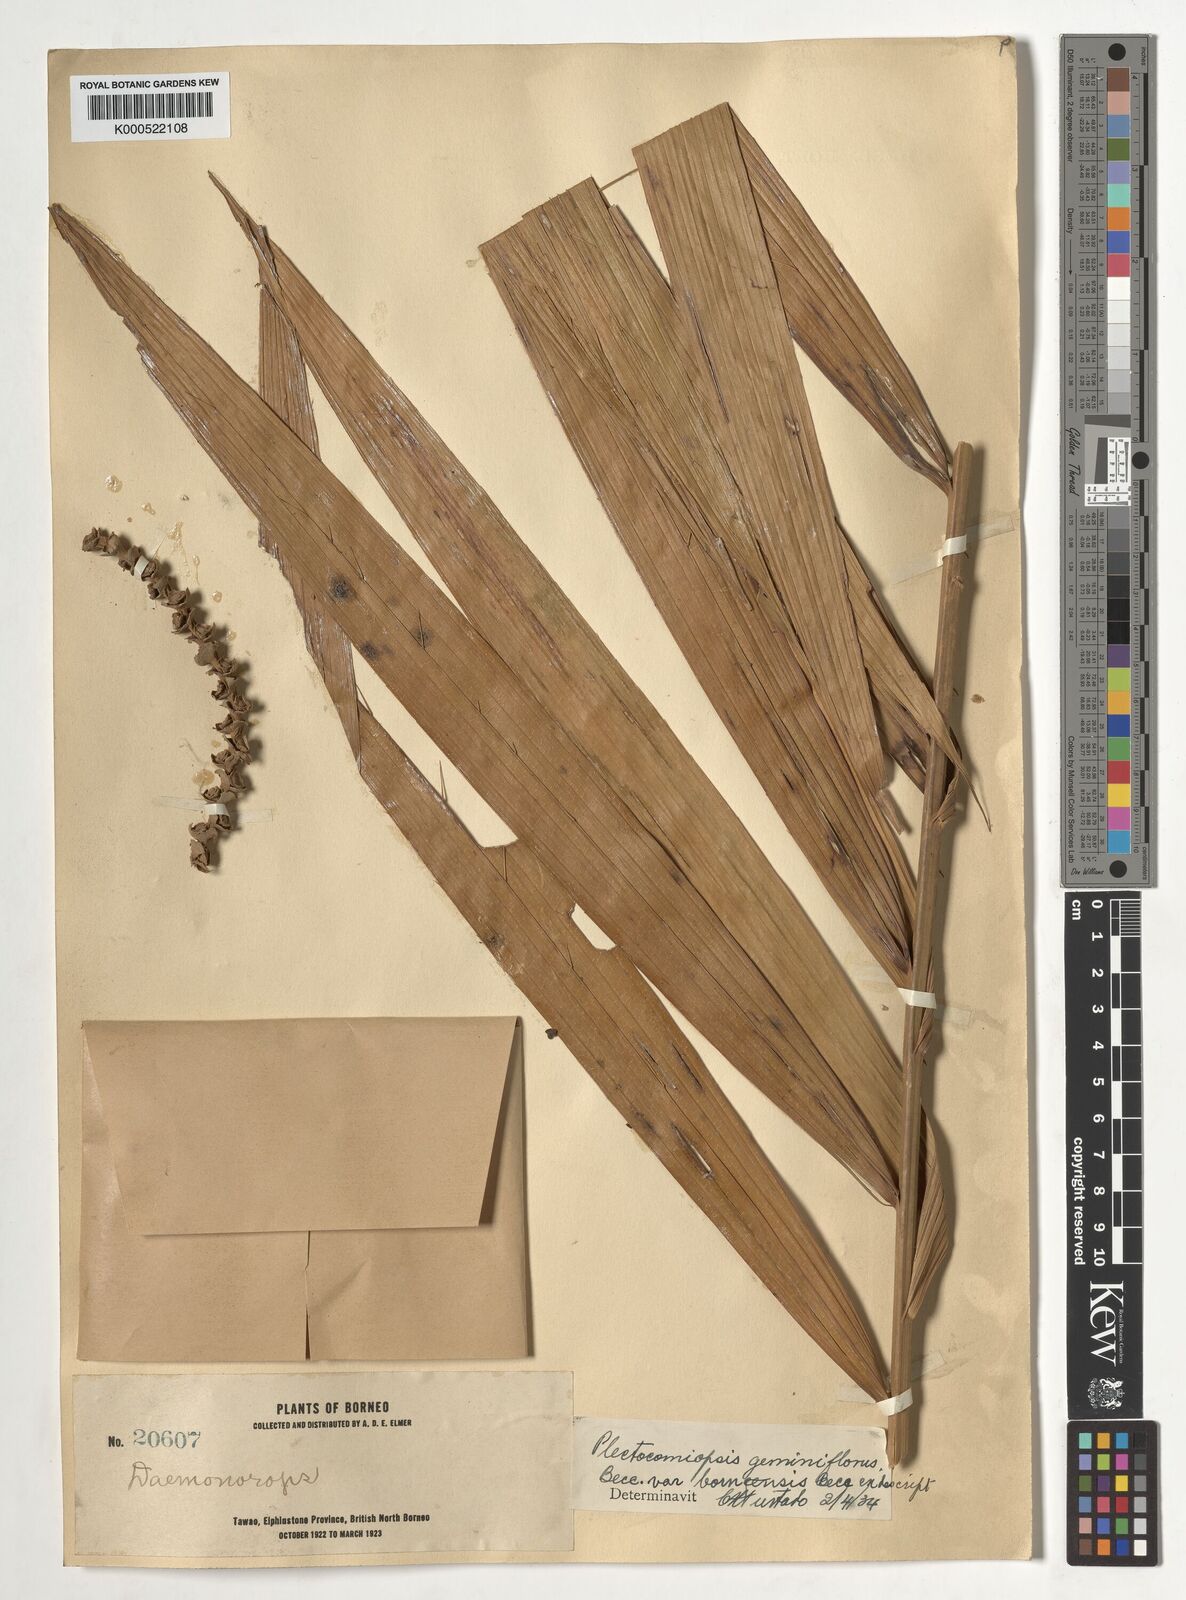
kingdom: Plantae
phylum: Tracheophyta
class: Liliopsida
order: Arecales
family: Arecaceae
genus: Plectocomiopsis
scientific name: Plectocomiopsis geminiflora
